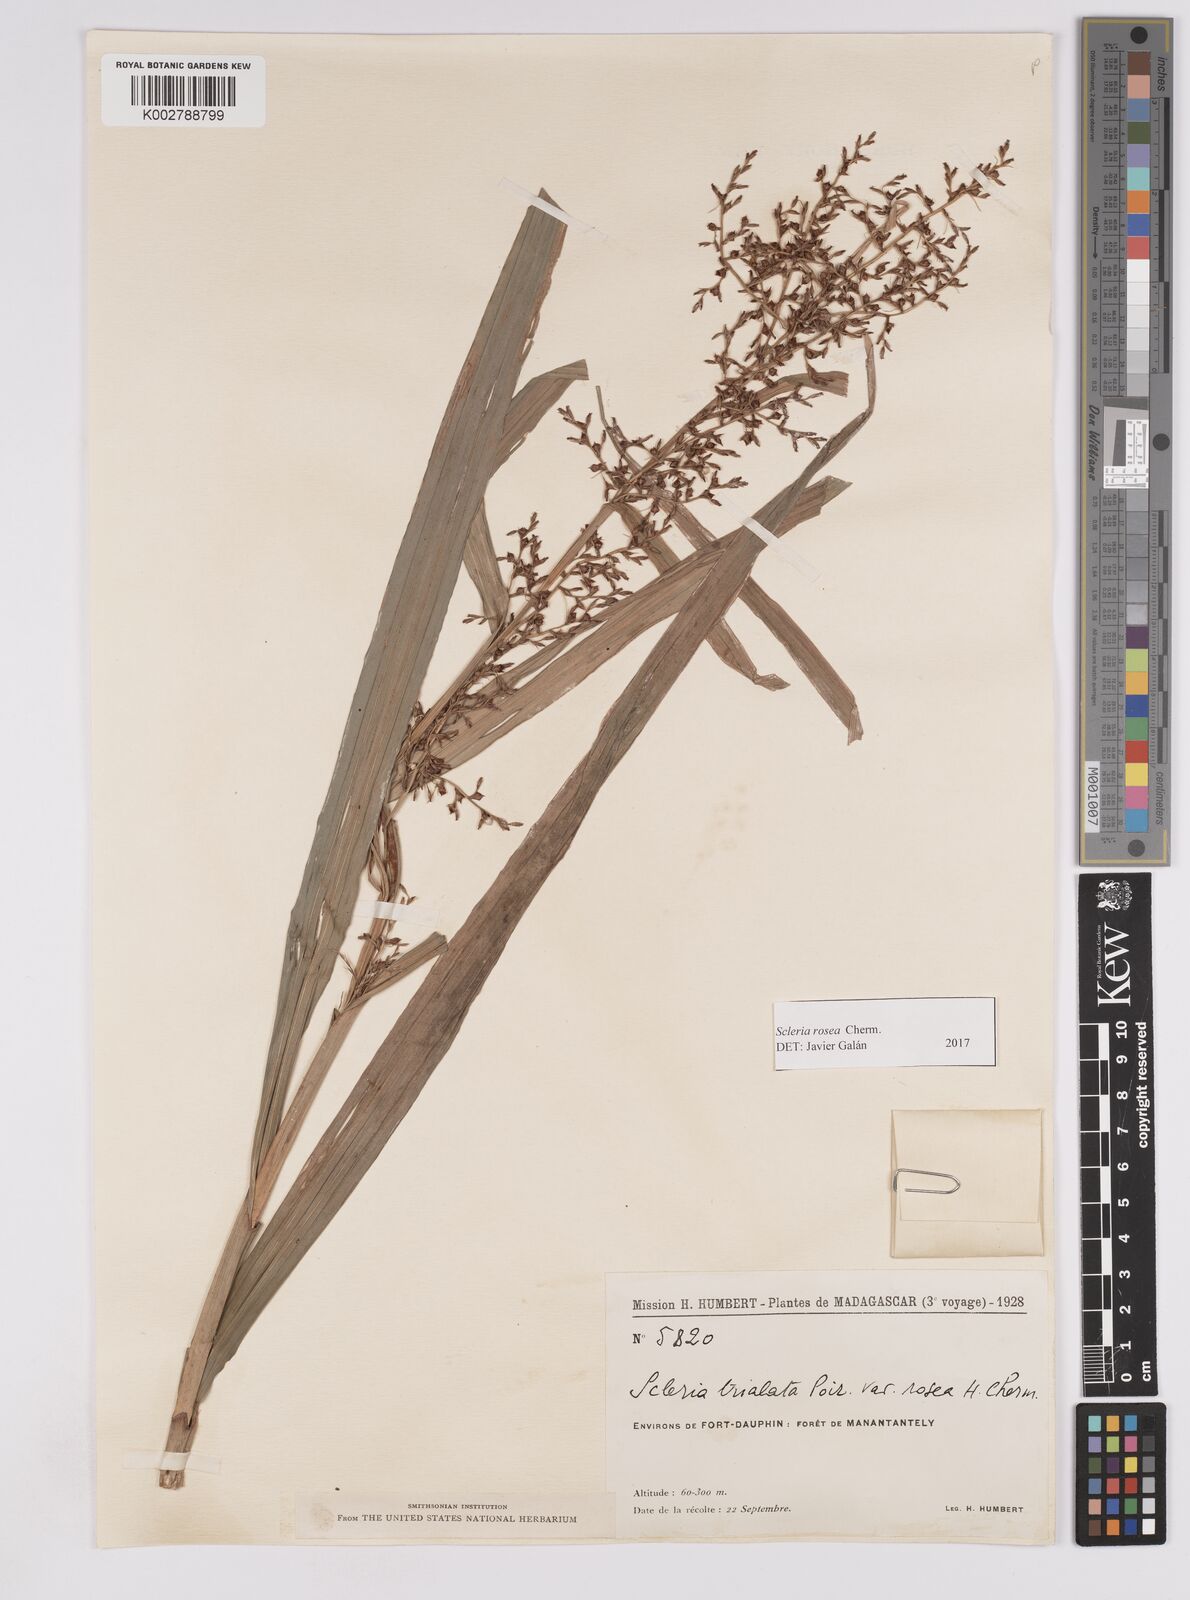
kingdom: Plantae
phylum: Tracheophyta
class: Liliopsida
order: Poales
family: Cyperaceae
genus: Scleria
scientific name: Scleria trialata
